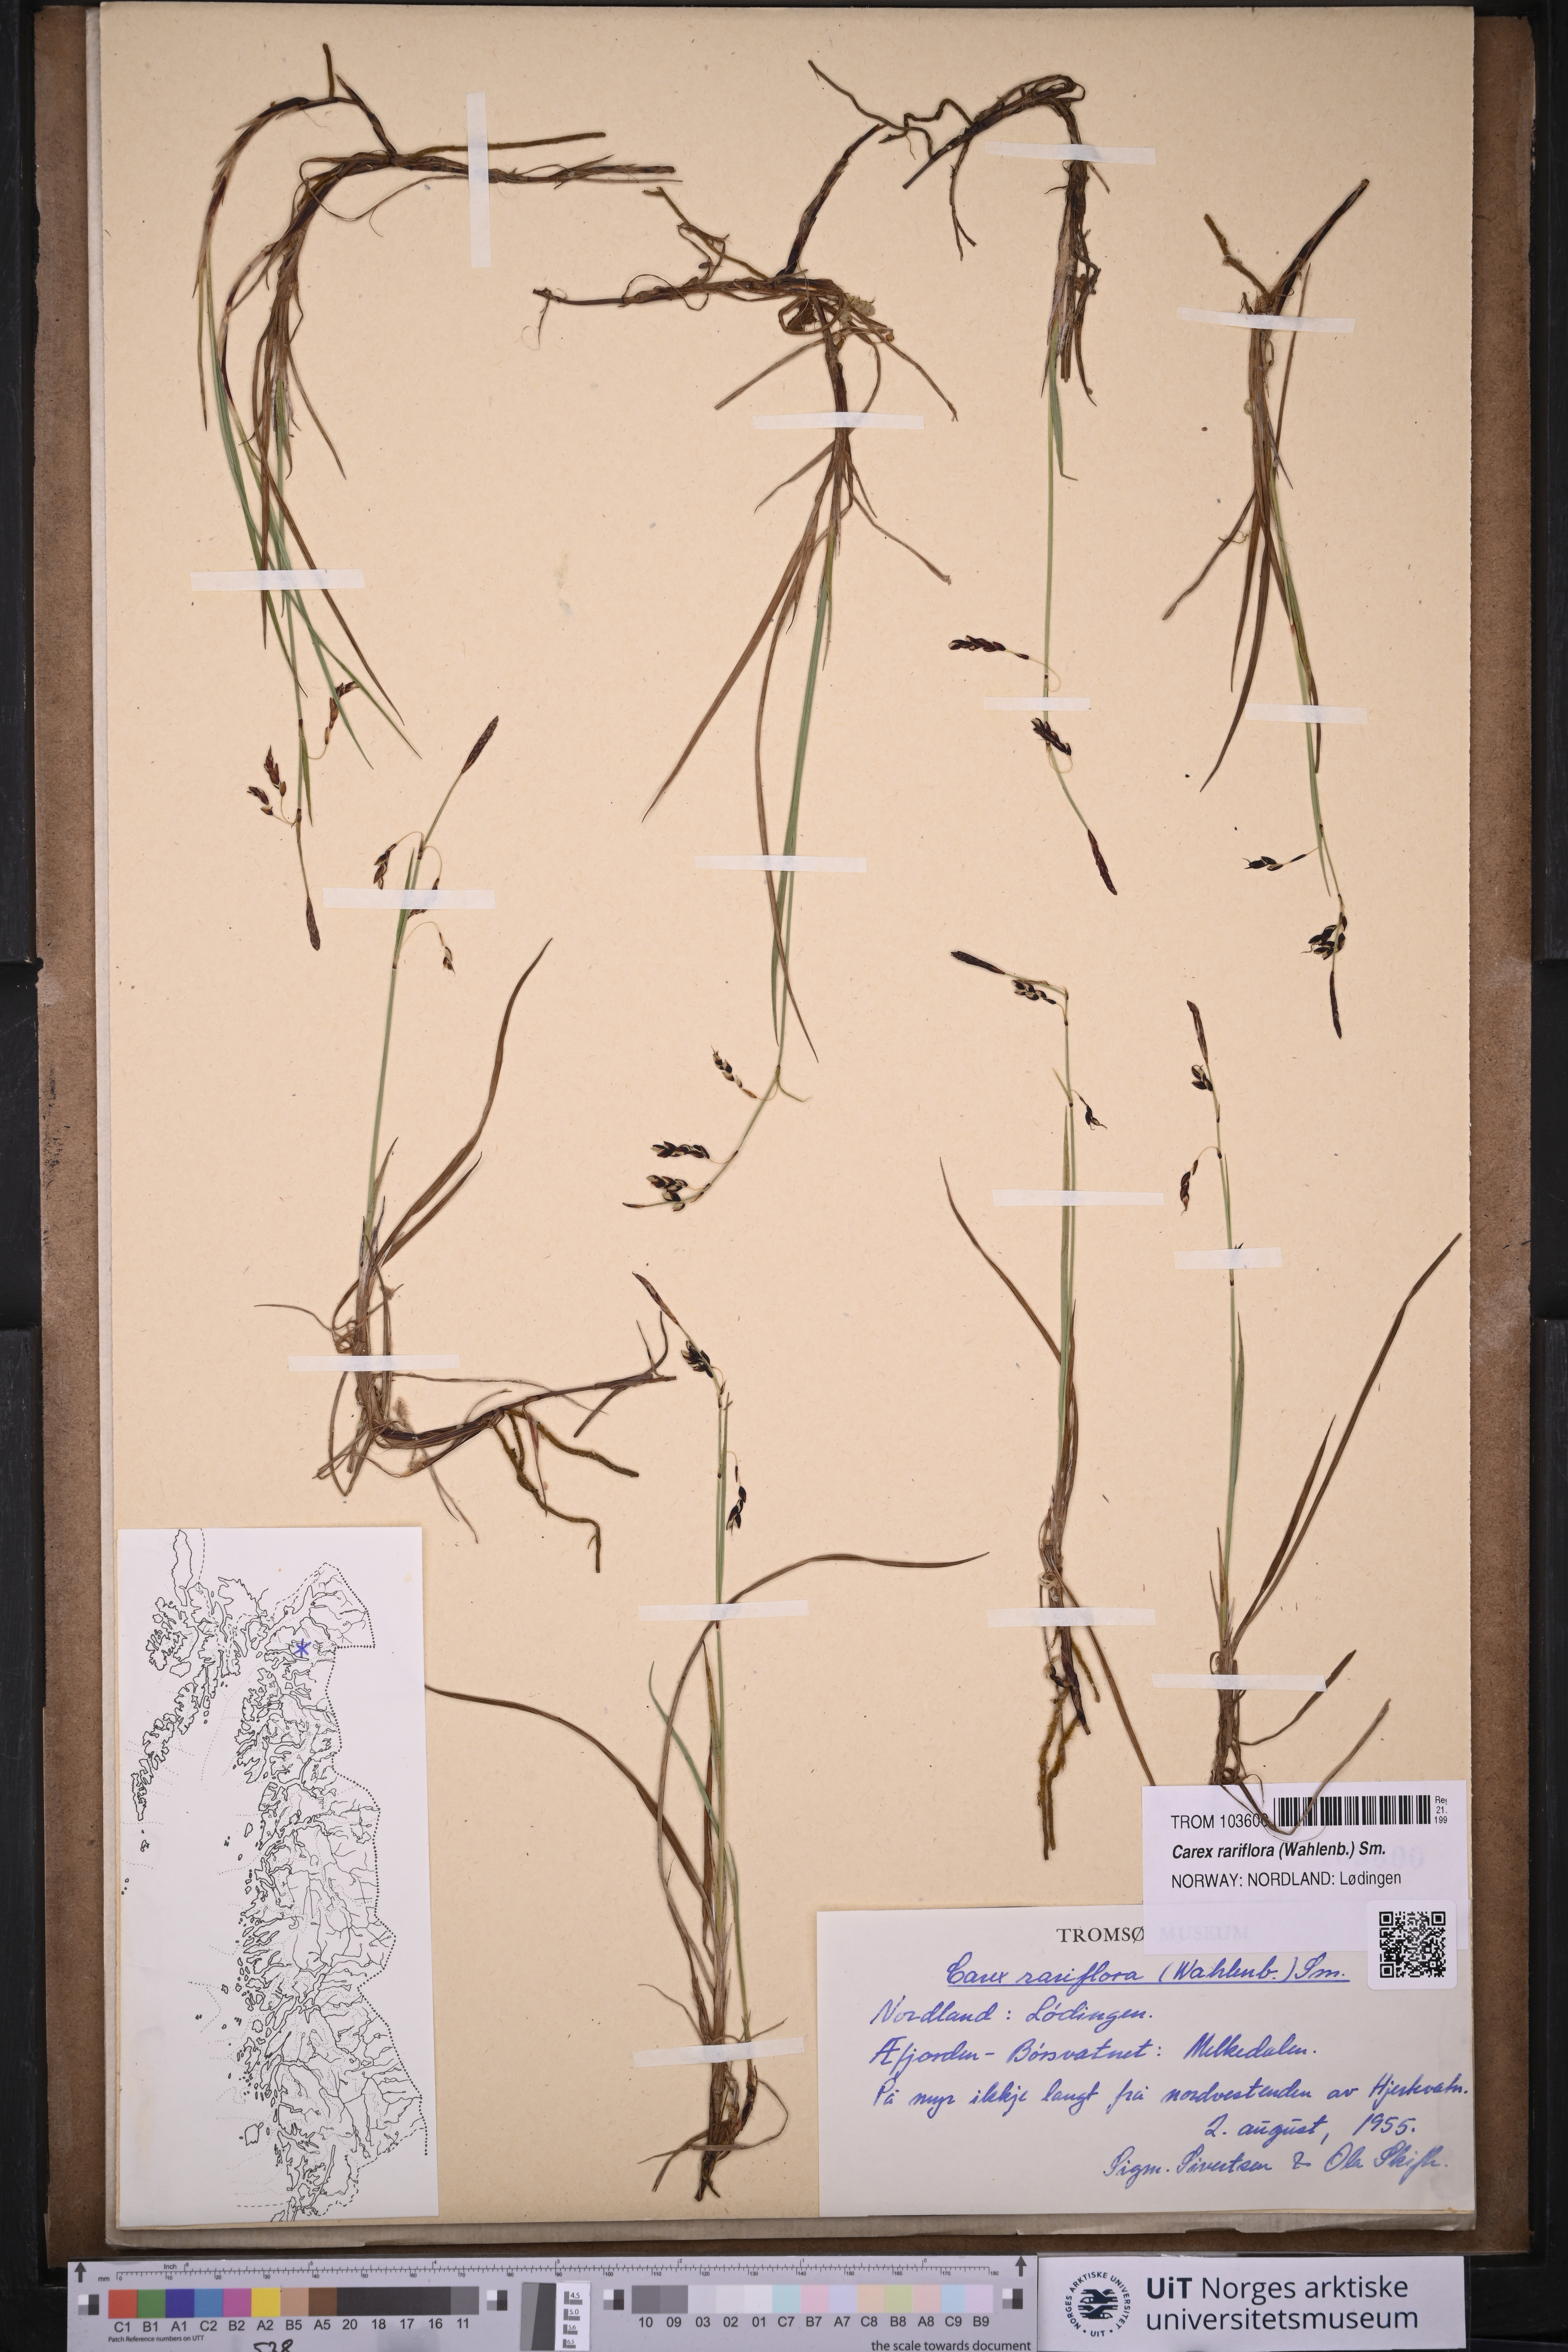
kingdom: Plantae
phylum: Tracheophyta
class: Liliopsida
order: Poales
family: Cyperaceae
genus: Carex
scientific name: Carex rariflora
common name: Loose-flowered alpine sedge
